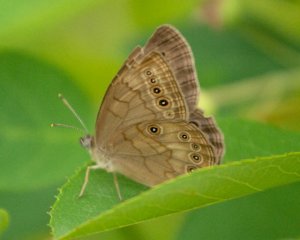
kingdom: Animalia
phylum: Arthropoda
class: Insecta
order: Lepidoptera
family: Nymphalidae
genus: Lethe
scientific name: Lethe eurydice
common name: Eyed Brown
